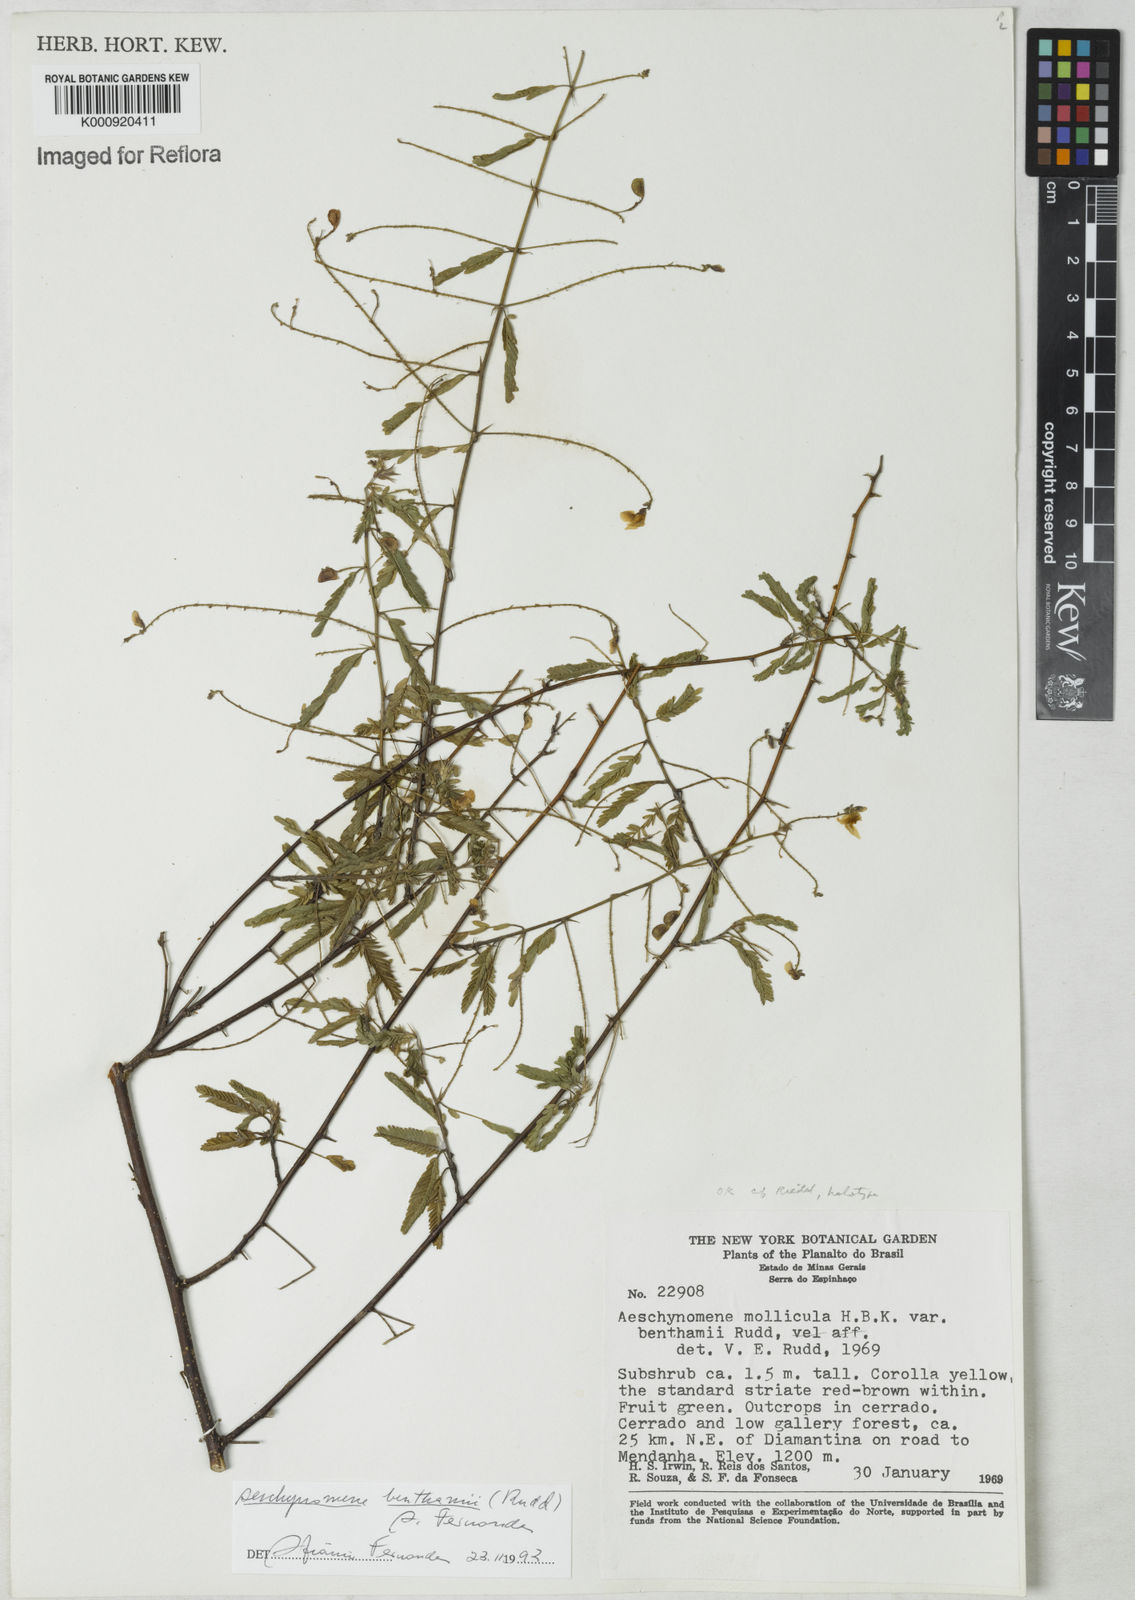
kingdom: Plantae
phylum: Tracheophyta
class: Magnoliopsida
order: Fabales
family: Fabaceae
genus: Ctenodon
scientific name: Ctenodon benthamii
